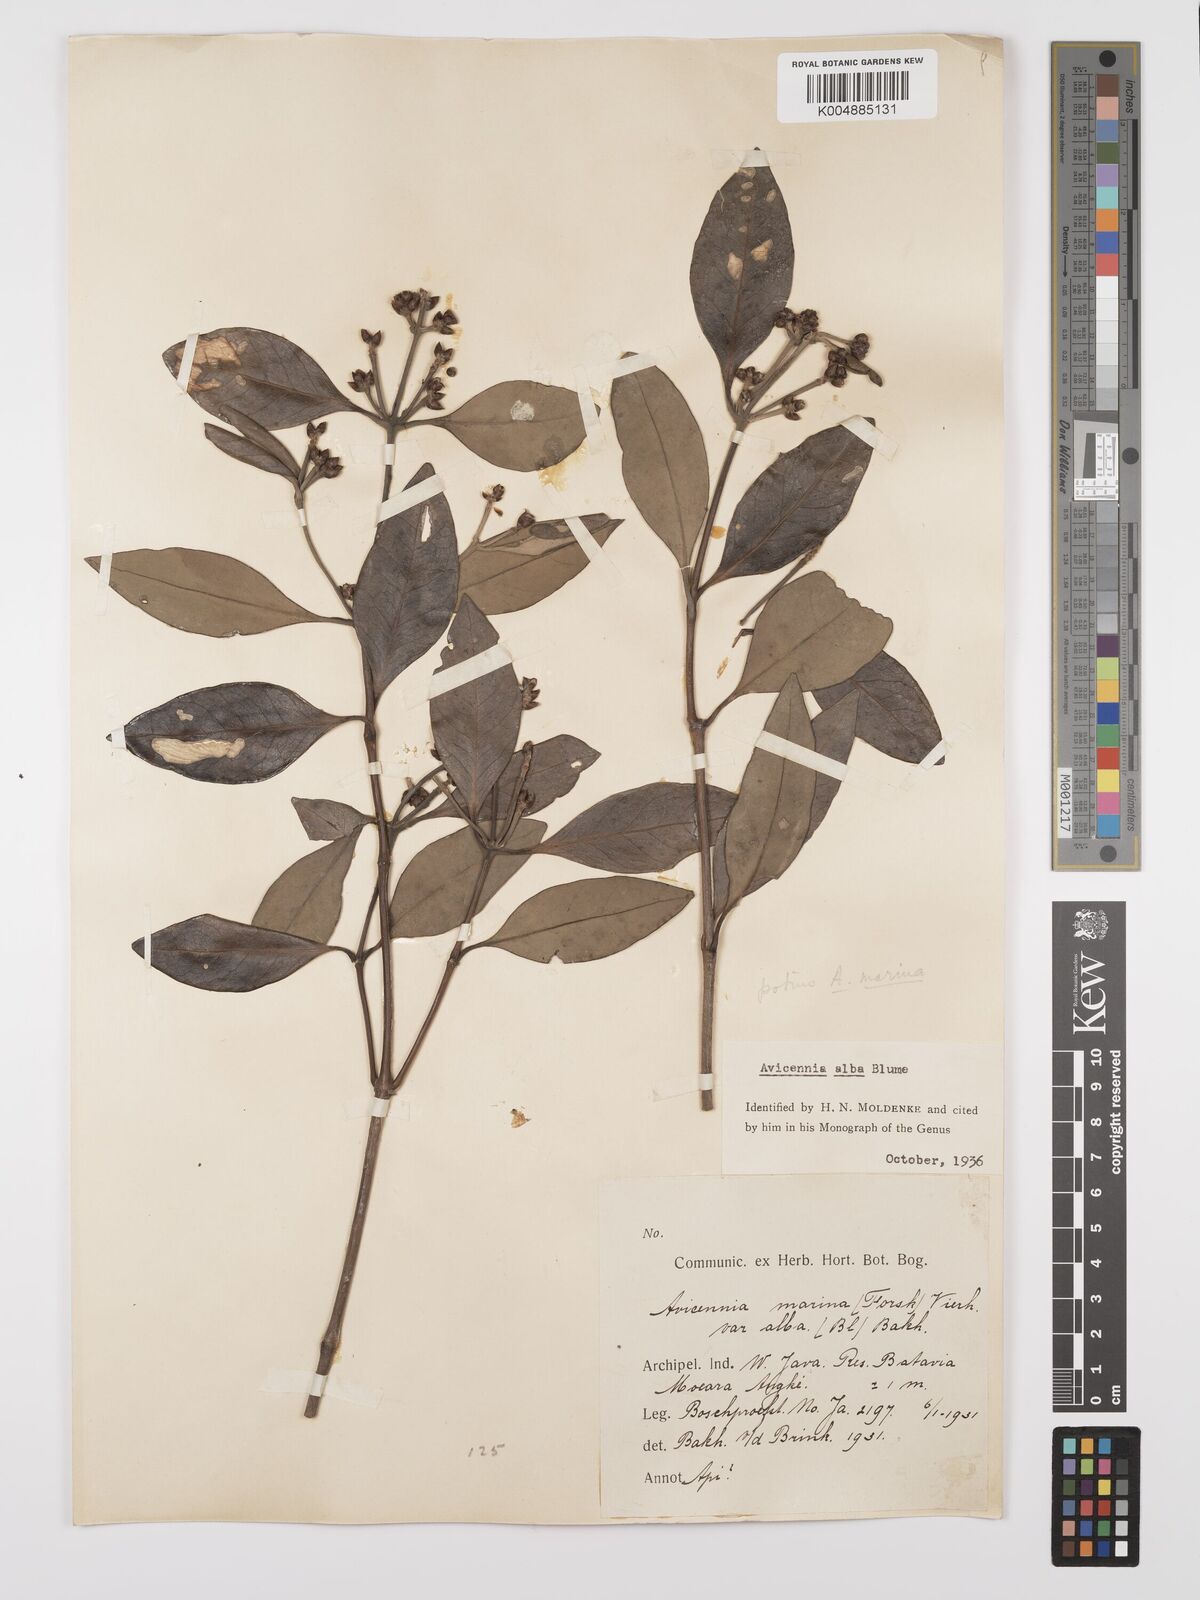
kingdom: Plantae
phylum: Tracheophyta
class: Magnoliopsida
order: Lamiales
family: Acanthaceae
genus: Avicennia
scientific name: Avicennia marina
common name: Gray mangrove
